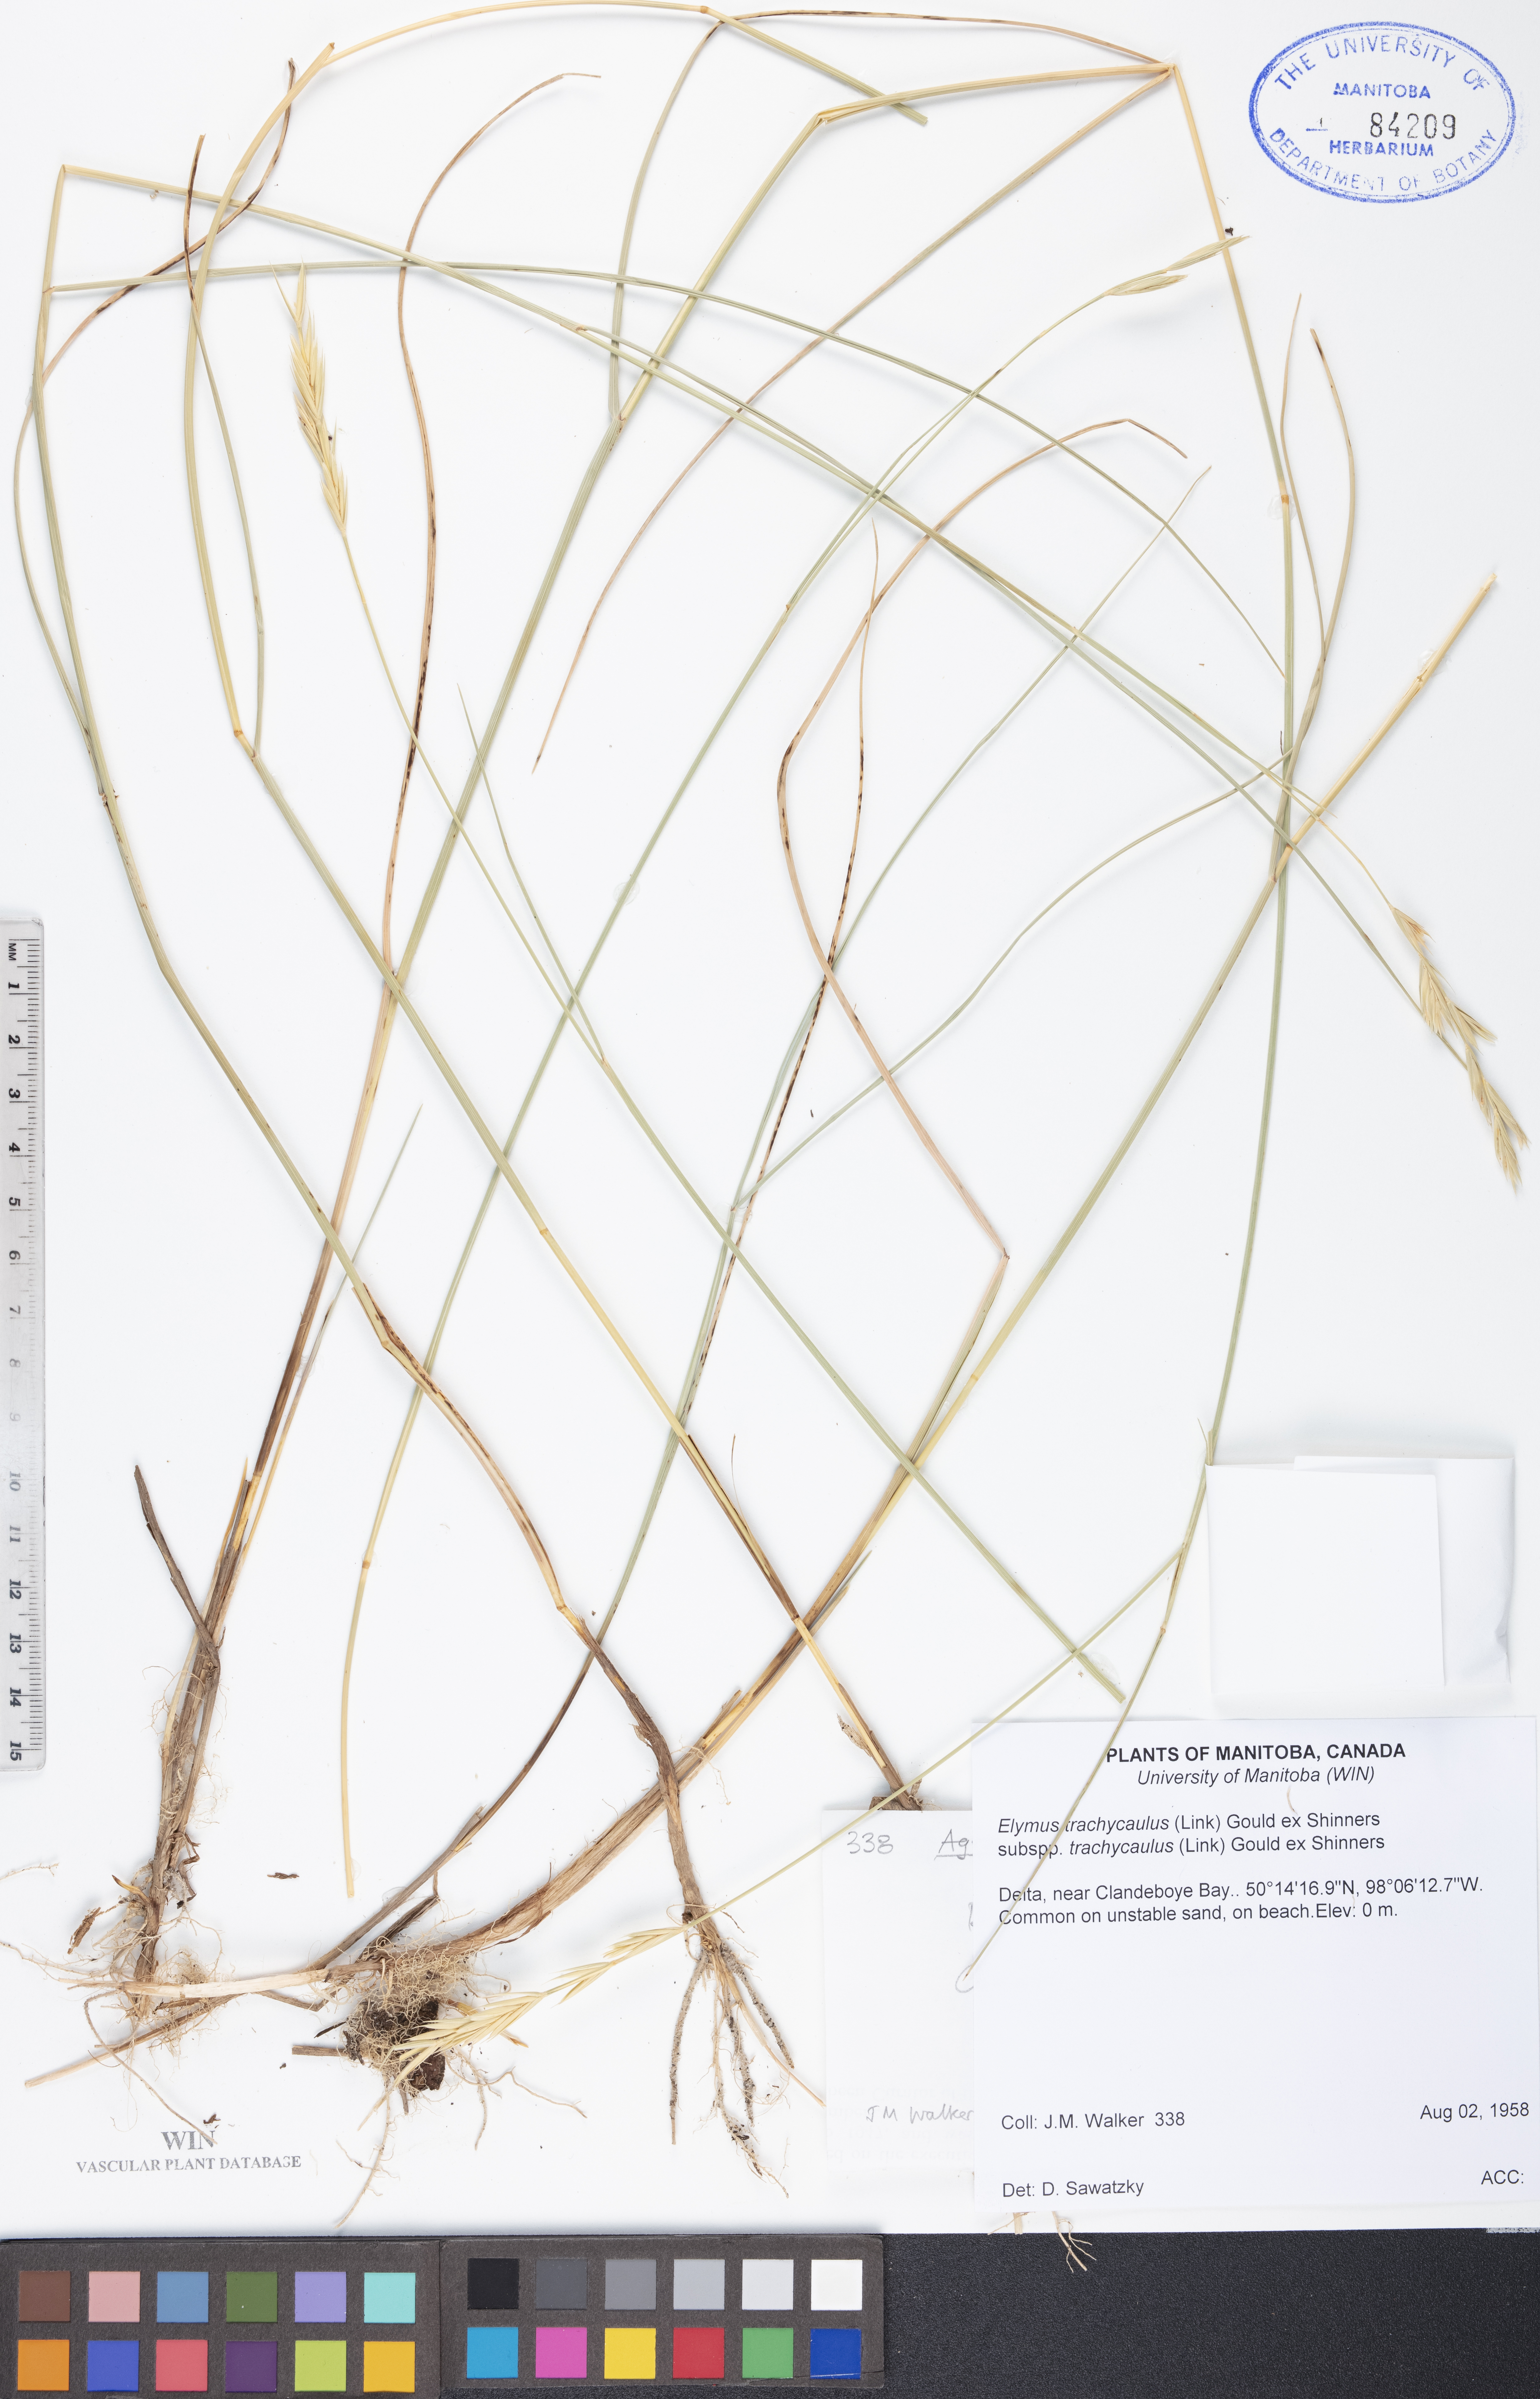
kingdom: Plantae
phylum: Tracheophyta
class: Liliopsida
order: Poales
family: Poaceae
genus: Elymus
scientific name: Elymus violaceus
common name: Arctic wheatgrass
